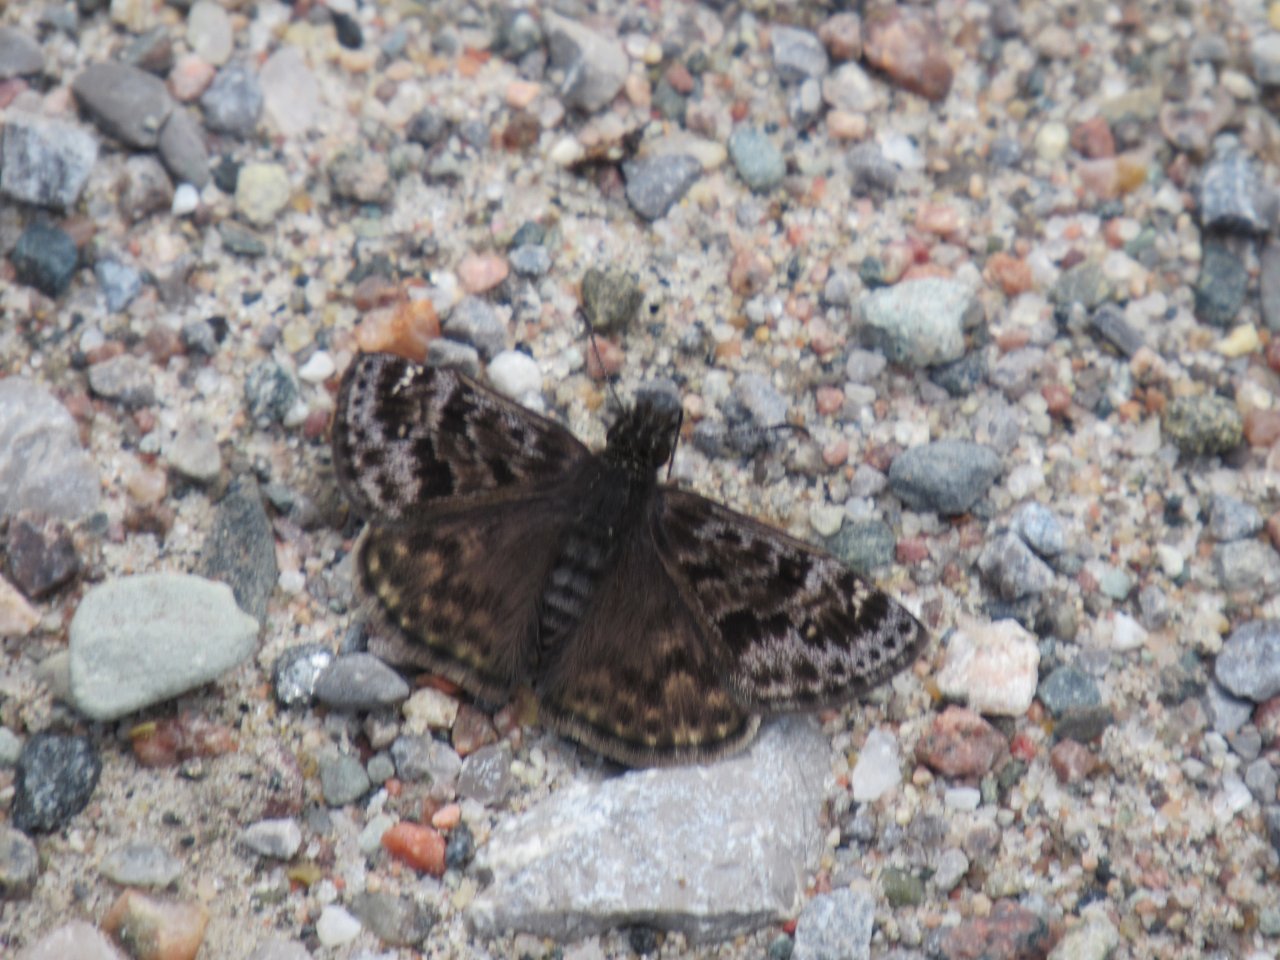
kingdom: Animalia
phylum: Arthropoda
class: Insecta
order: Lepidoptera
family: Hesperiidae
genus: Erynnis
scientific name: Erynnis martialis
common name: Mottled Duskywing
